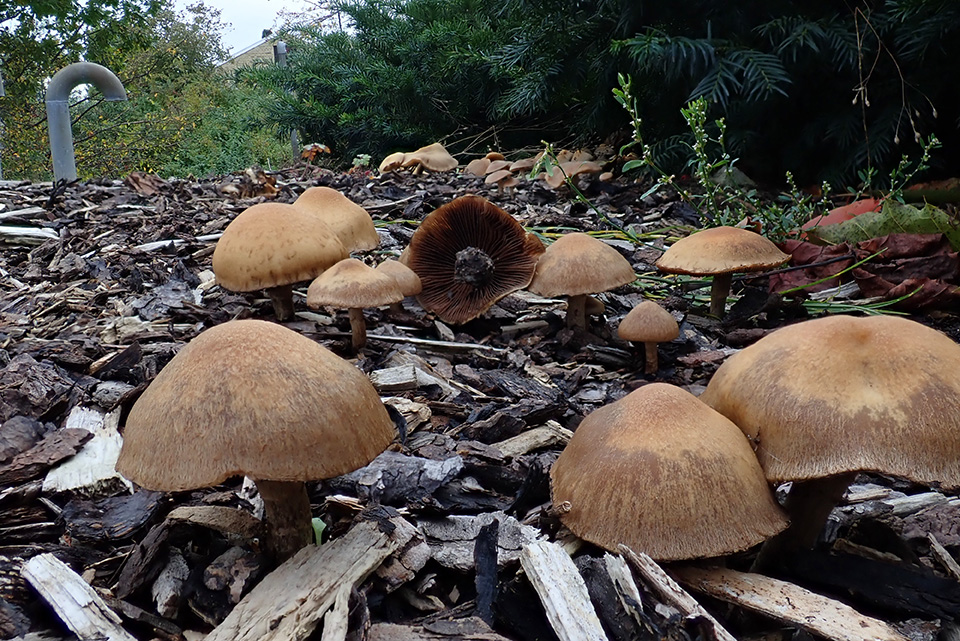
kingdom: Fungi
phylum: Basidiomycota
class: Agaricomycetes
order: Agaricales
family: Psathyrellaceae
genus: Lacrymaria
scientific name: Lacrymaria lacrymabunda
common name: grædende mørkhat
